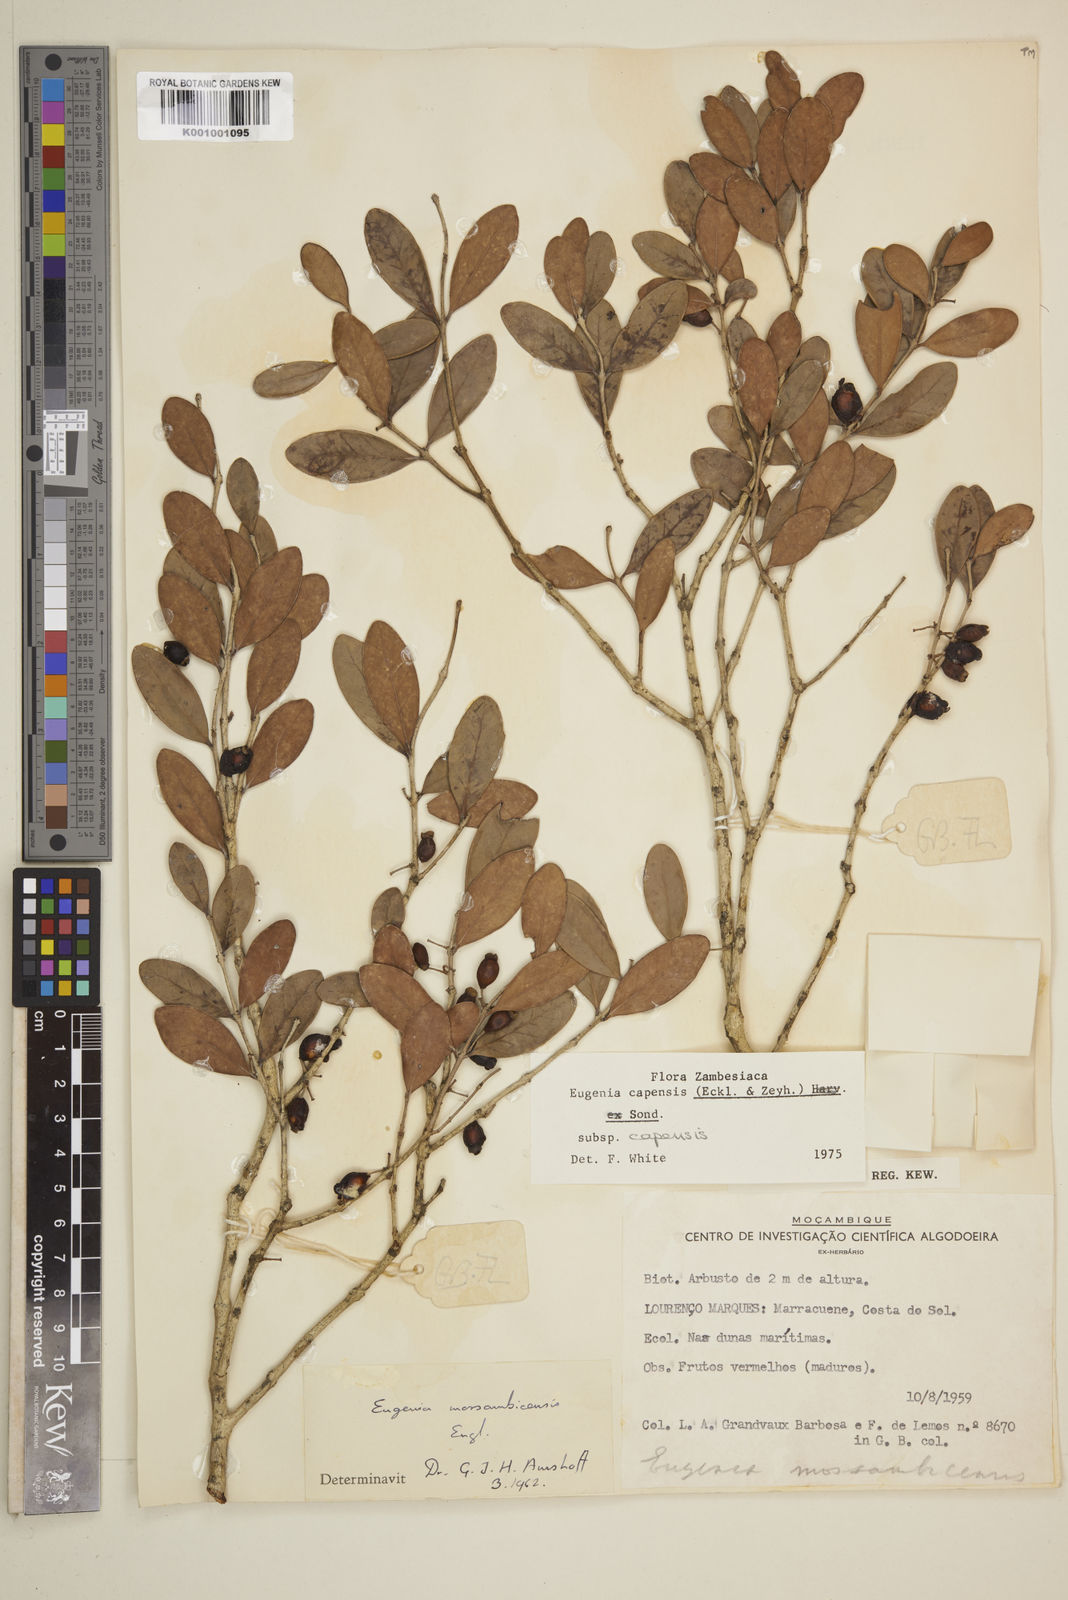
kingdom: Plantae
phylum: Tracheophyta
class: Magnoliopsida
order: Myrtales
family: Myrtaceae
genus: Eugenia
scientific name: Eugenia capensis
